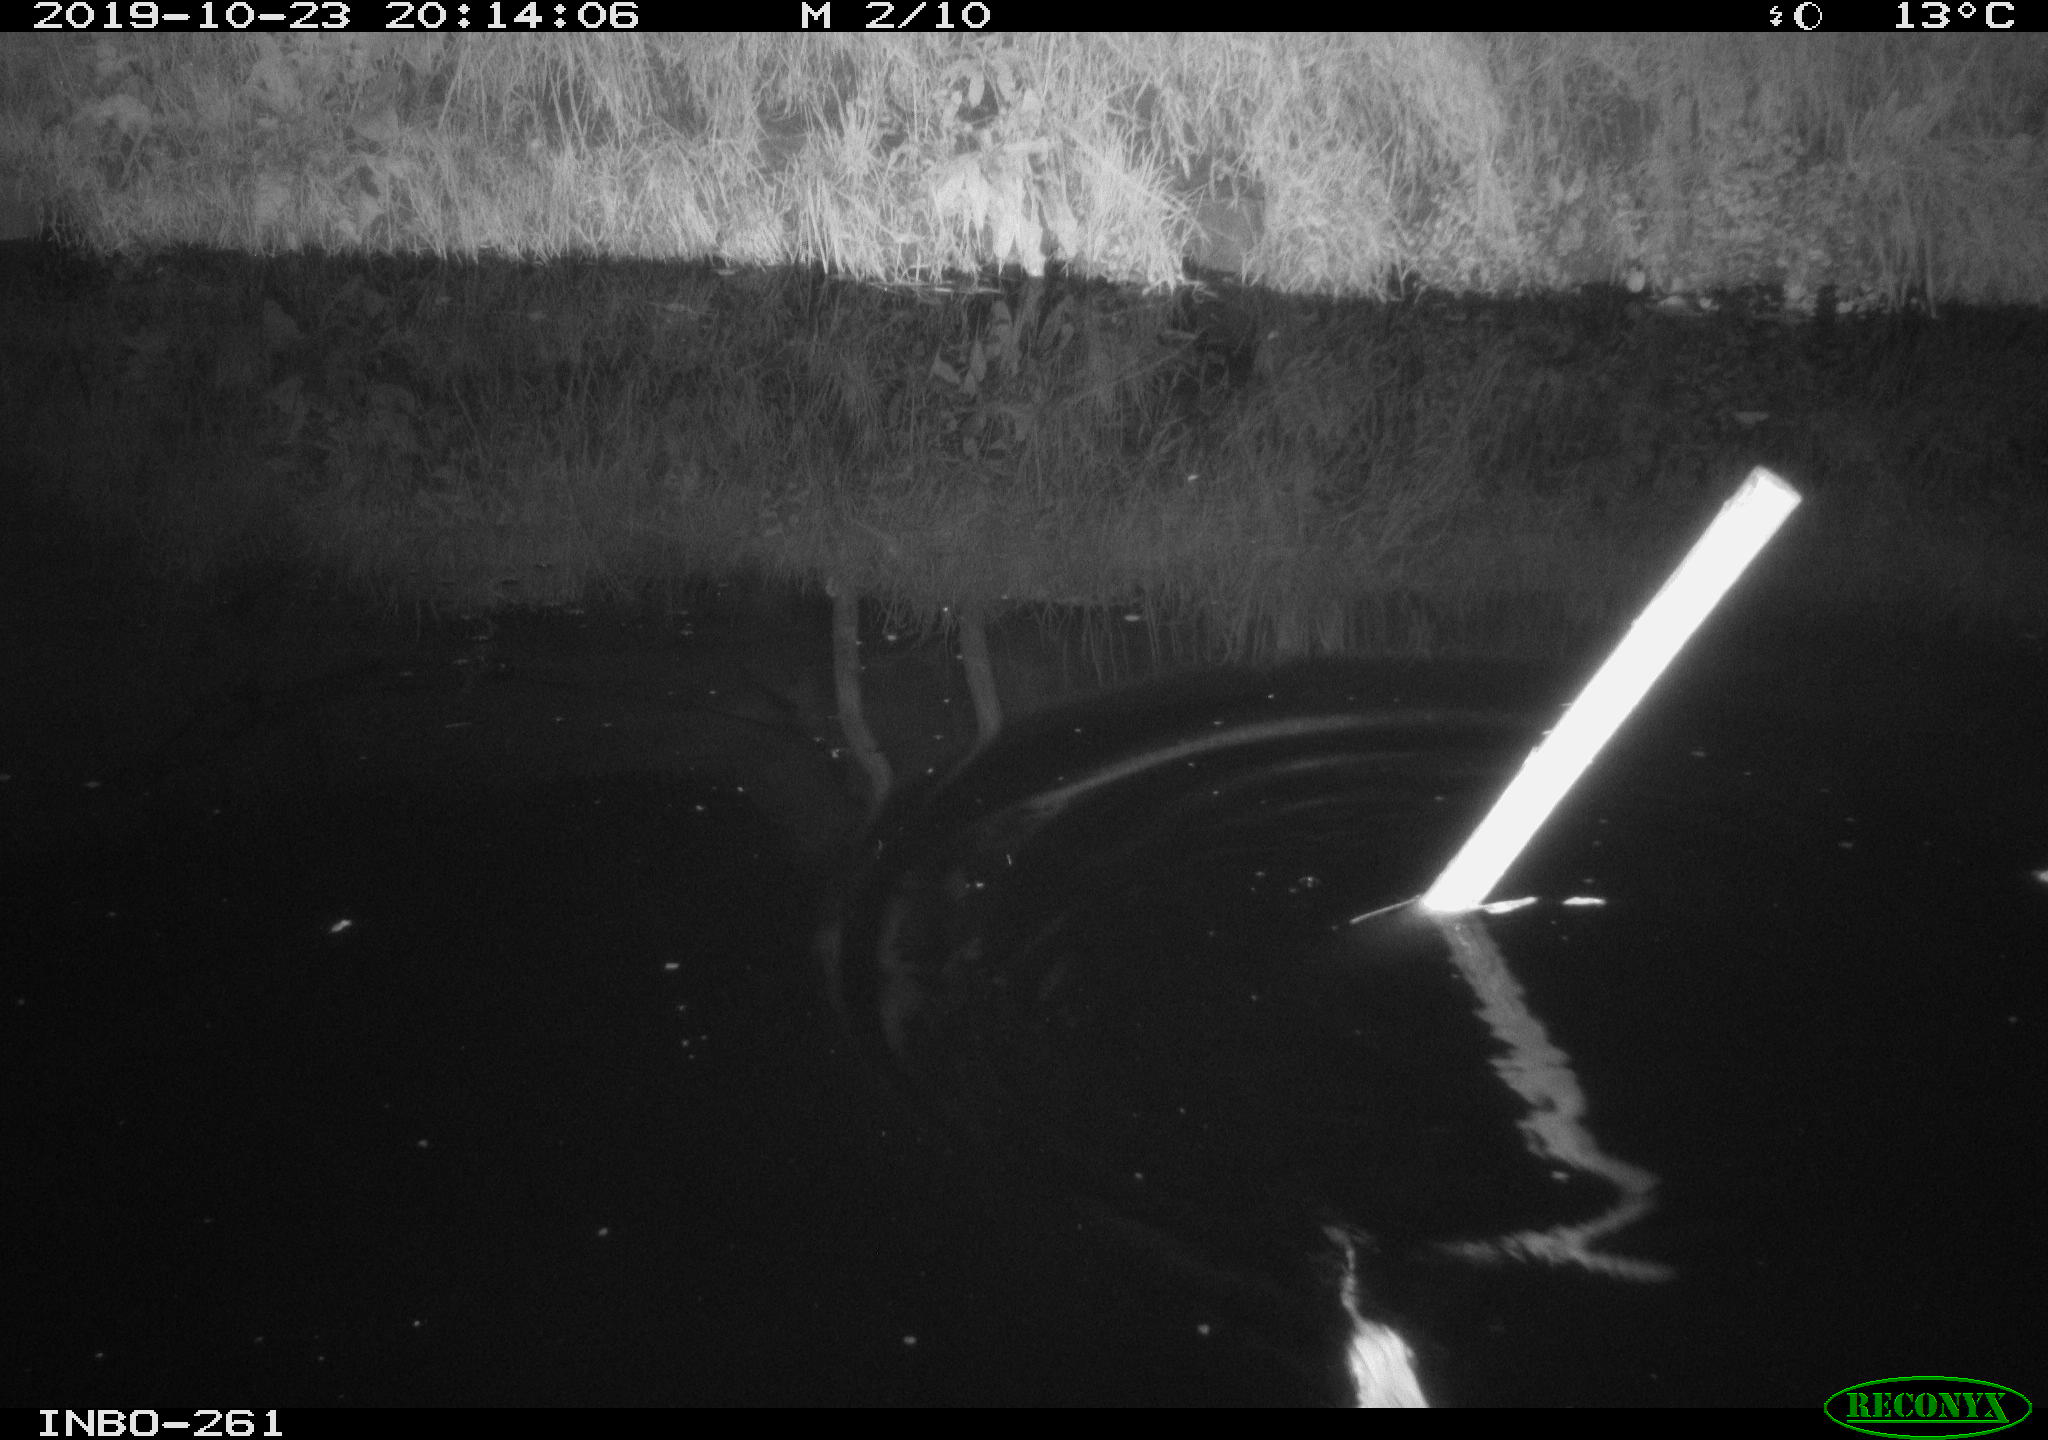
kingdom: Animalia
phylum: Chordata
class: Mammalia
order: Rodentia
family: Muridae
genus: Rattus
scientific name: Rattus norvegicus
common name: Brown rat
